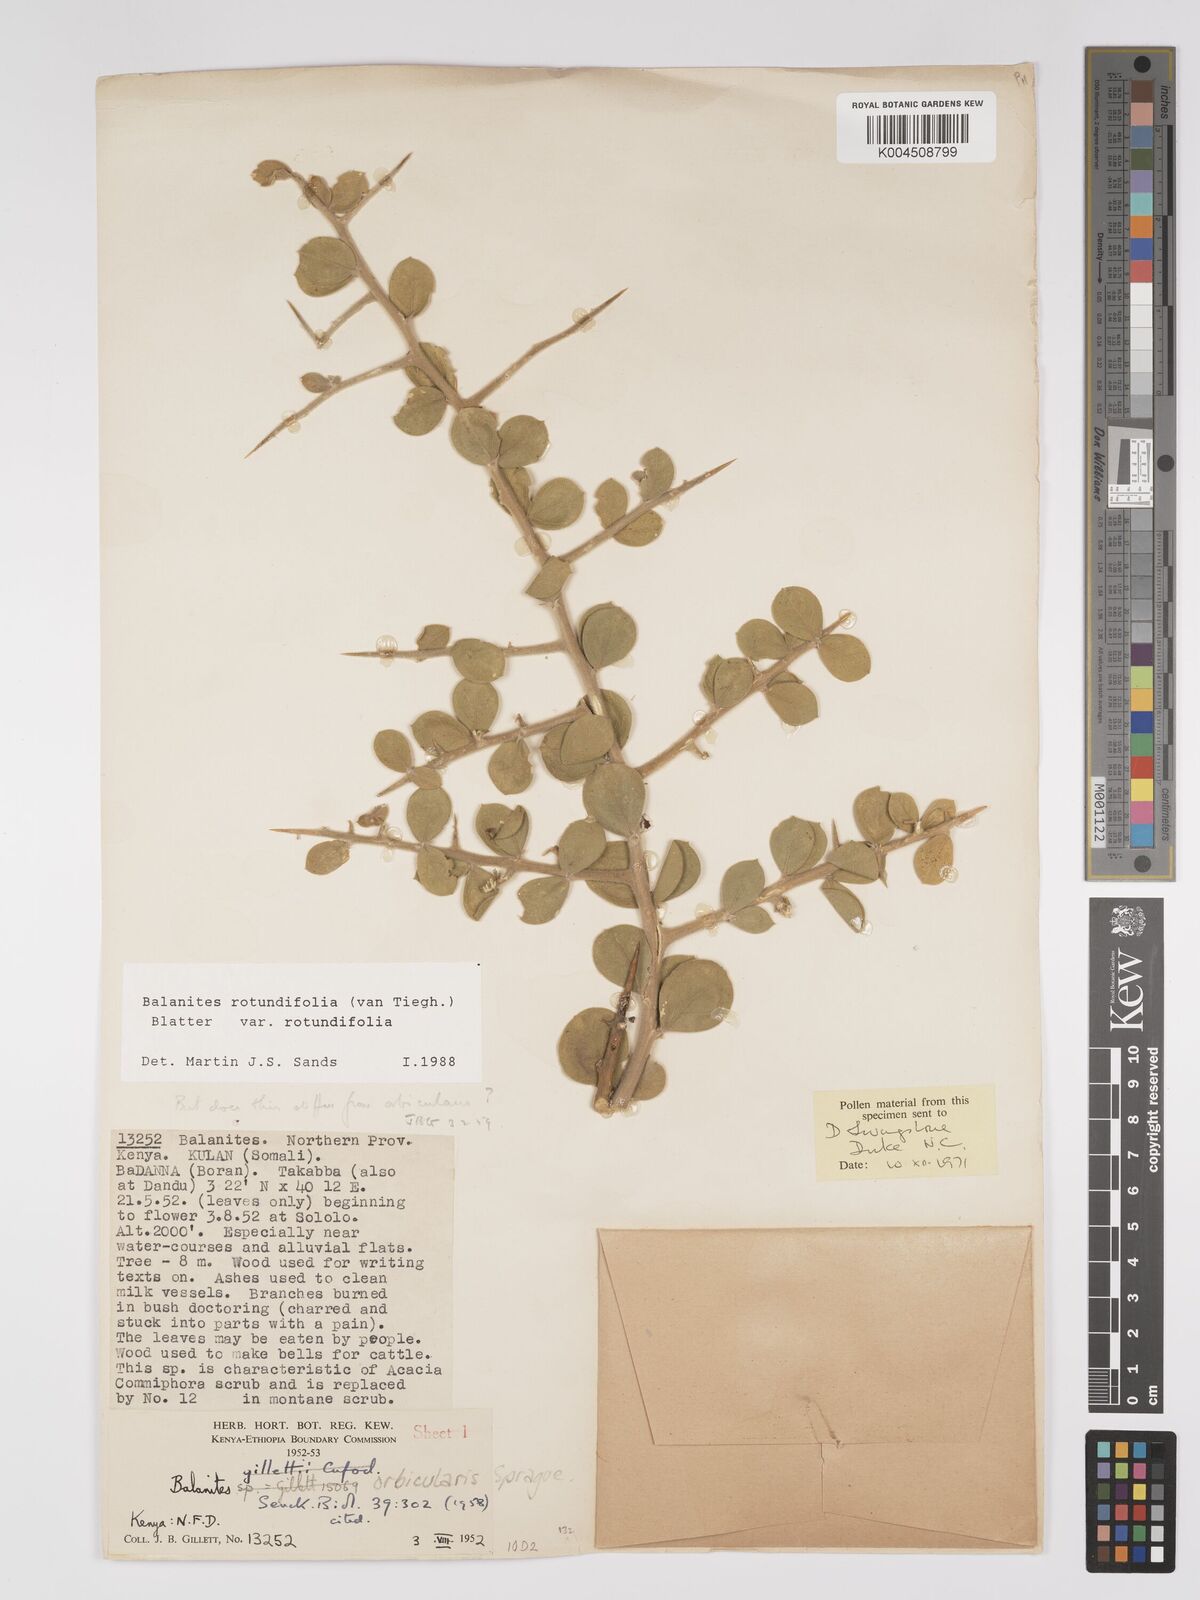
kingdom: Plantae
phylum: Tracheophyta
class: Magnoliopsida
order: Zygophyllales
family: Zygophyllaceae
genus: Balanites
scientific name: Balanites rotundifolia
